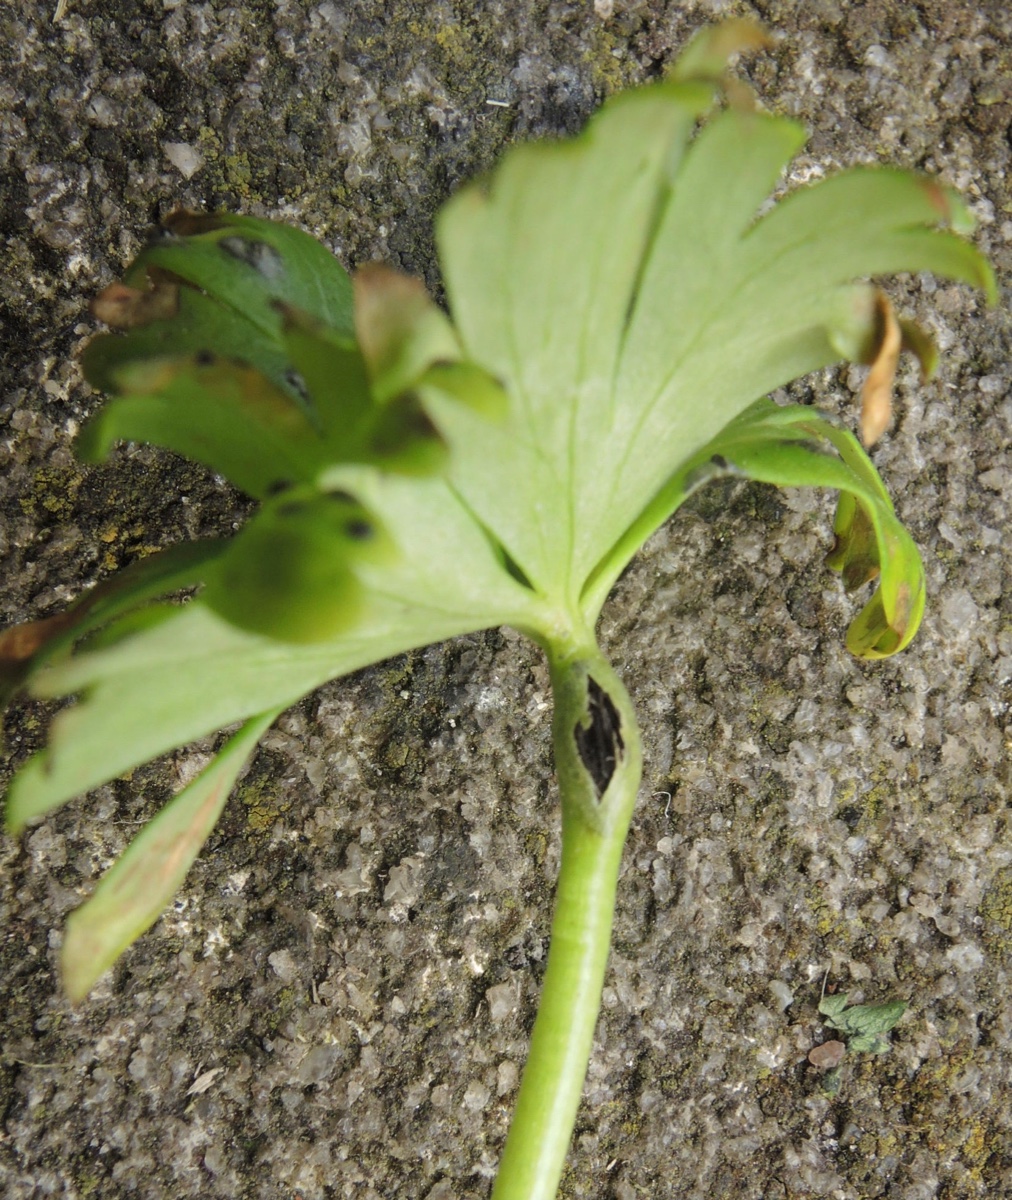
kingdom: Fungi
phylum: Basidiomycota
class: Ustilaginomycetes
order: Urocystidales
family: Urocystidaceae
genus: Urocystis
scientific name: Urocystis eranthidis
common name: erantis-brand
